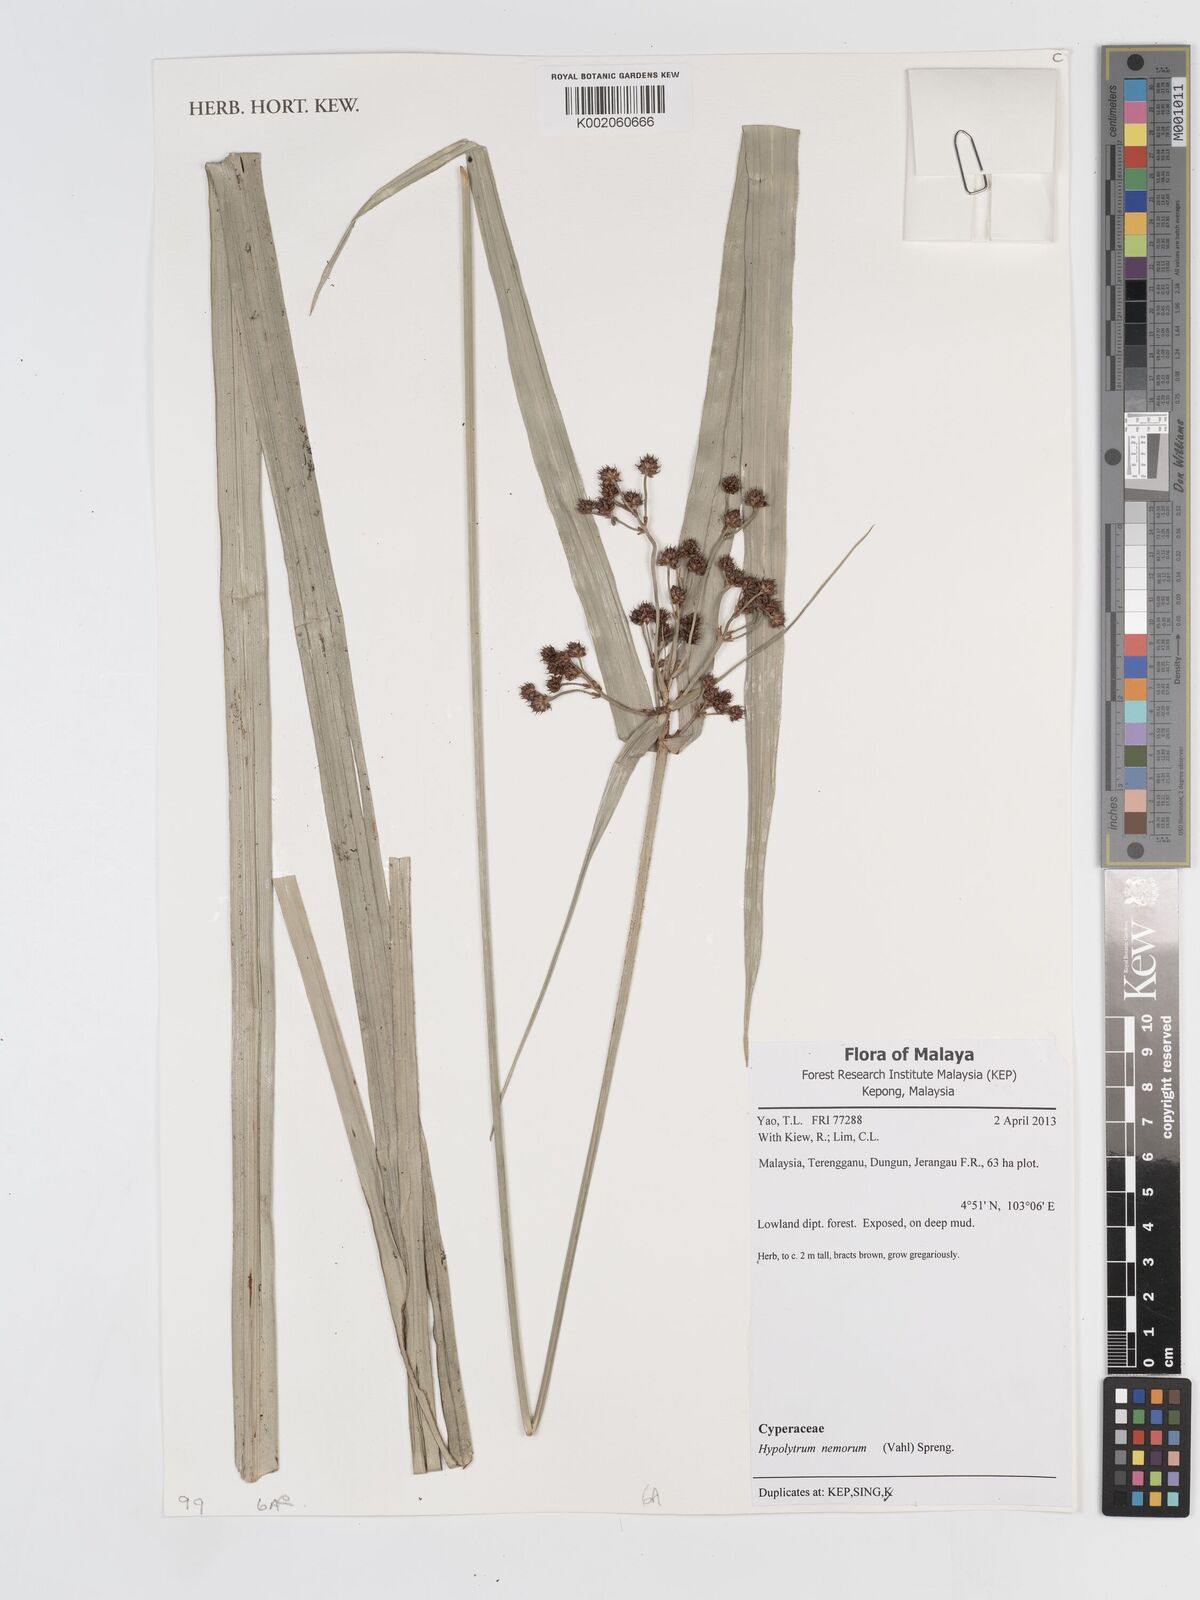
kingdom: Plantae
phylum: Tracheophyta
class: Liliopsida
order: Poales
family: Cyperaceae
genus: Hypolytrum
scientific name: Hypolytrum nemorum
